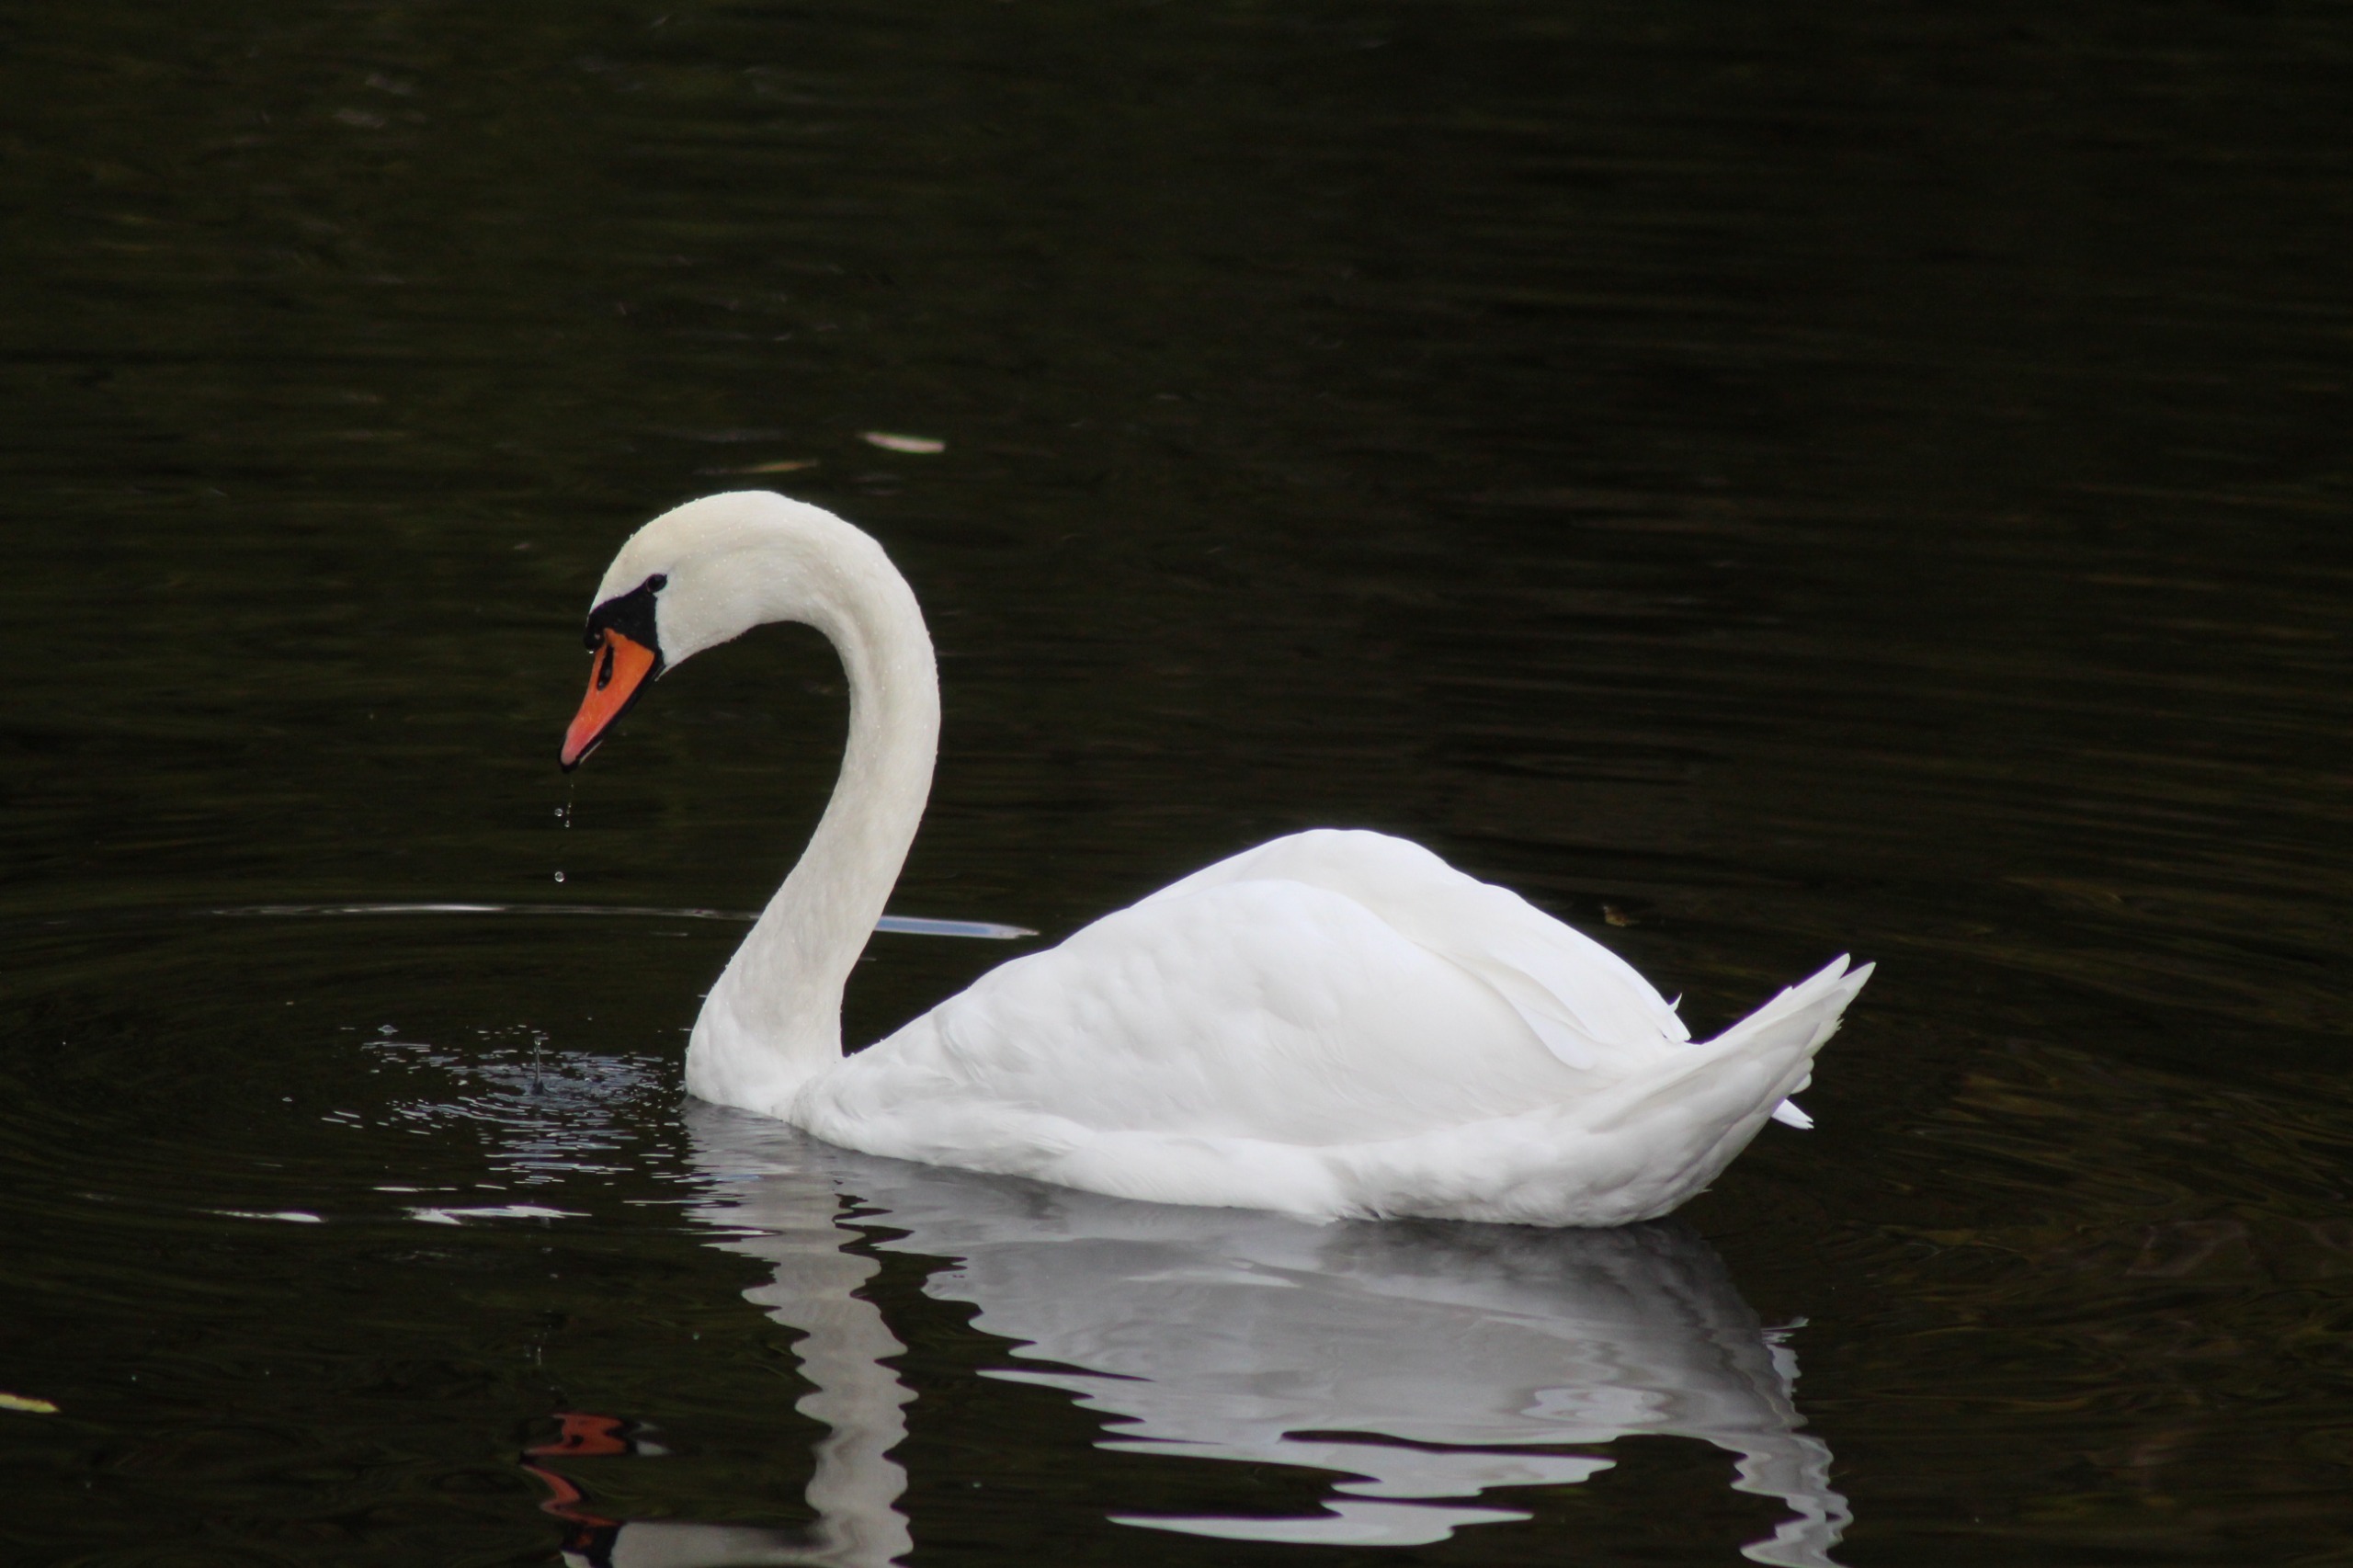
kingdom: Animalia
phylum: Chordata
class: Aves
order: Anseriformes
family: Anatidae
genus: Cygnus
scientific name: Cygnus olor
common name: Knopsvane
